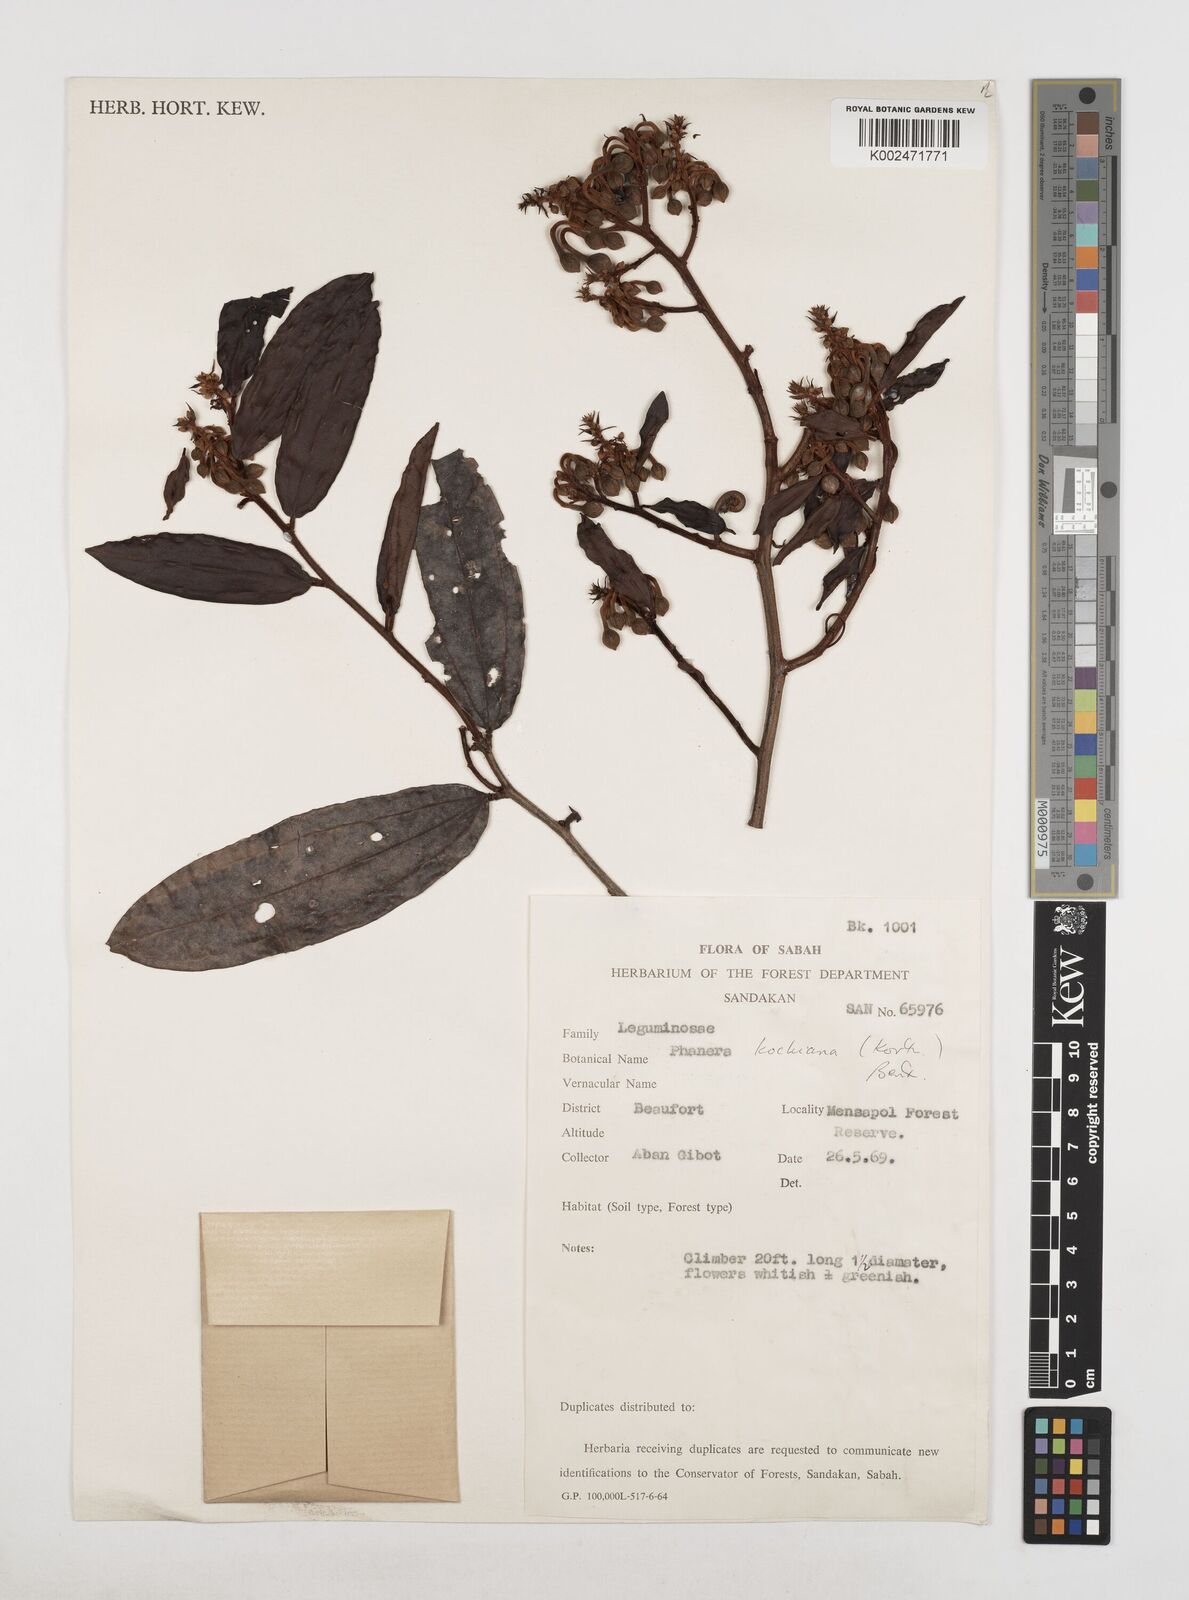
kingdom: Plantae
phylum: Tracheophyta
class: Magnoliopsida
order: Fabales
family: Fabaceae
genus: Phanera
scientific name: Phanera kockiana
